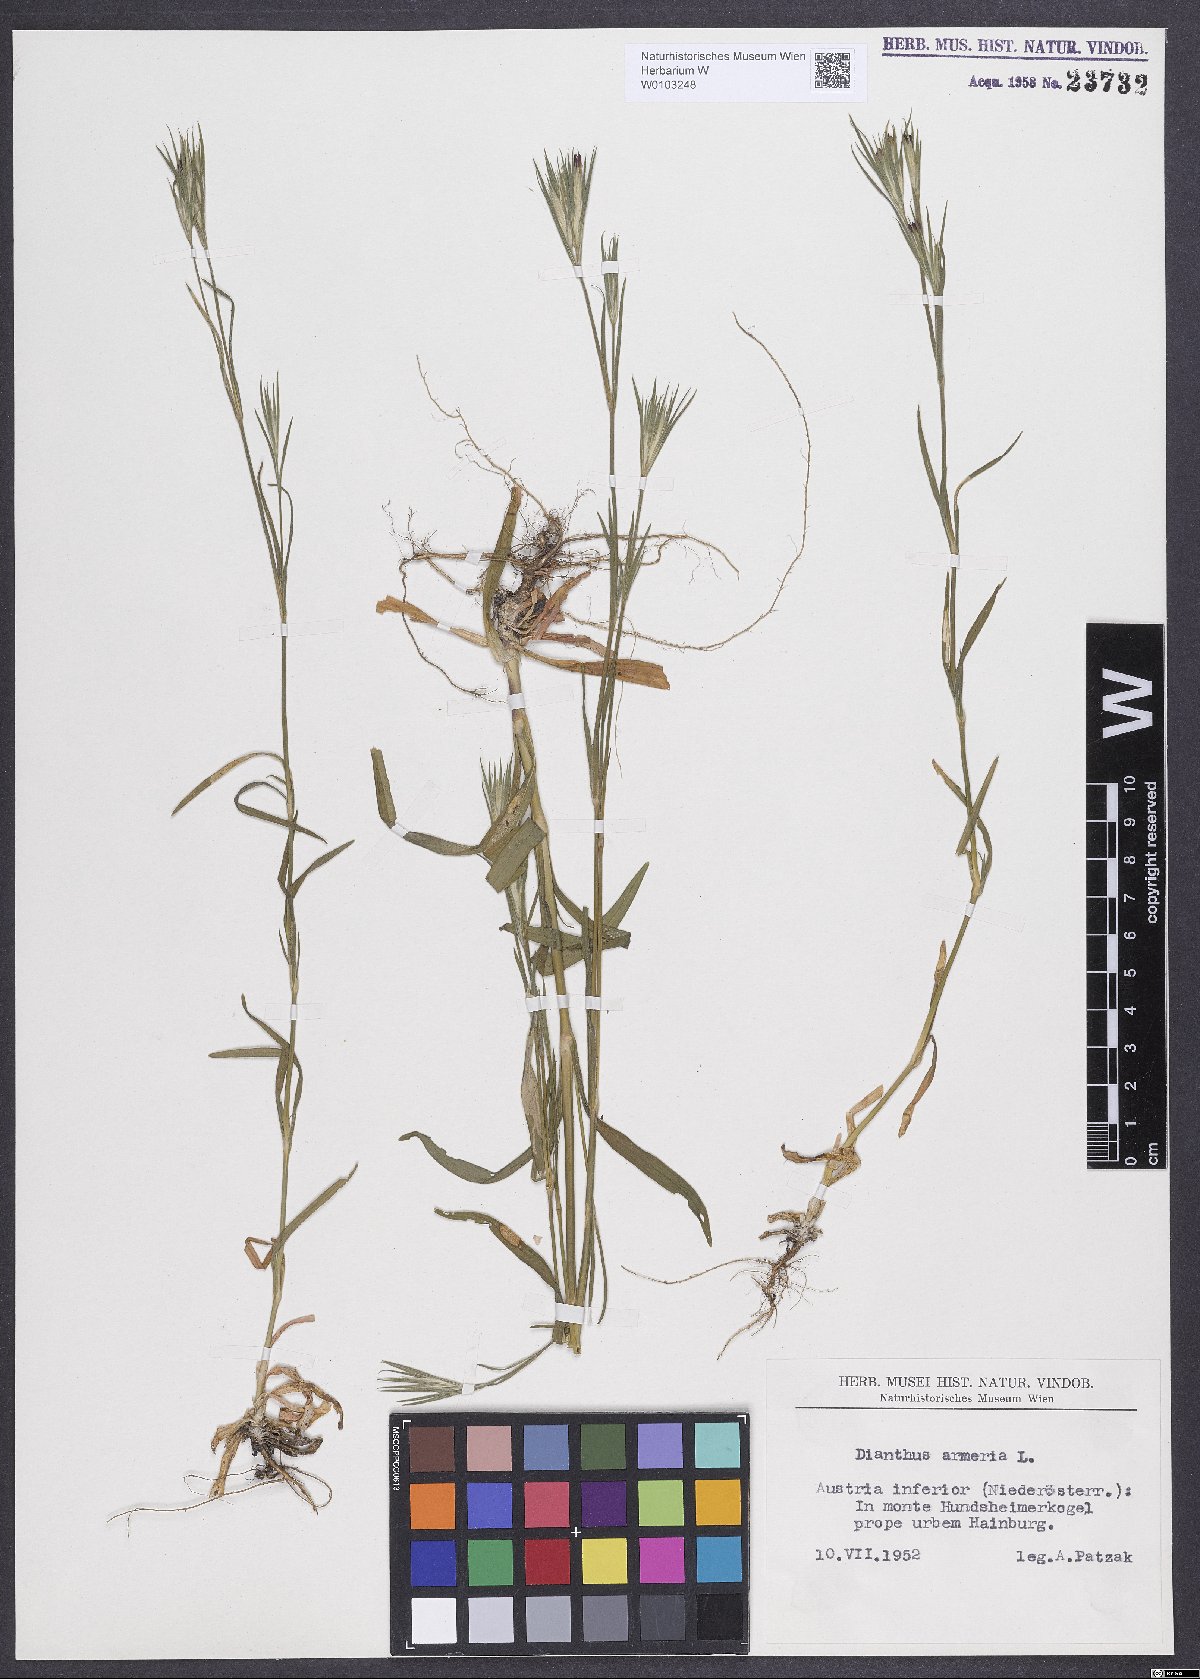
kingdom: Plantae
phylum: Tracheophyta
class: Magnoliopsida
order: Caryophyllales
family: Caryophyllaceae
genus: Dianthus
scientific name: Dianthus armeria
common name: Deptford pink
